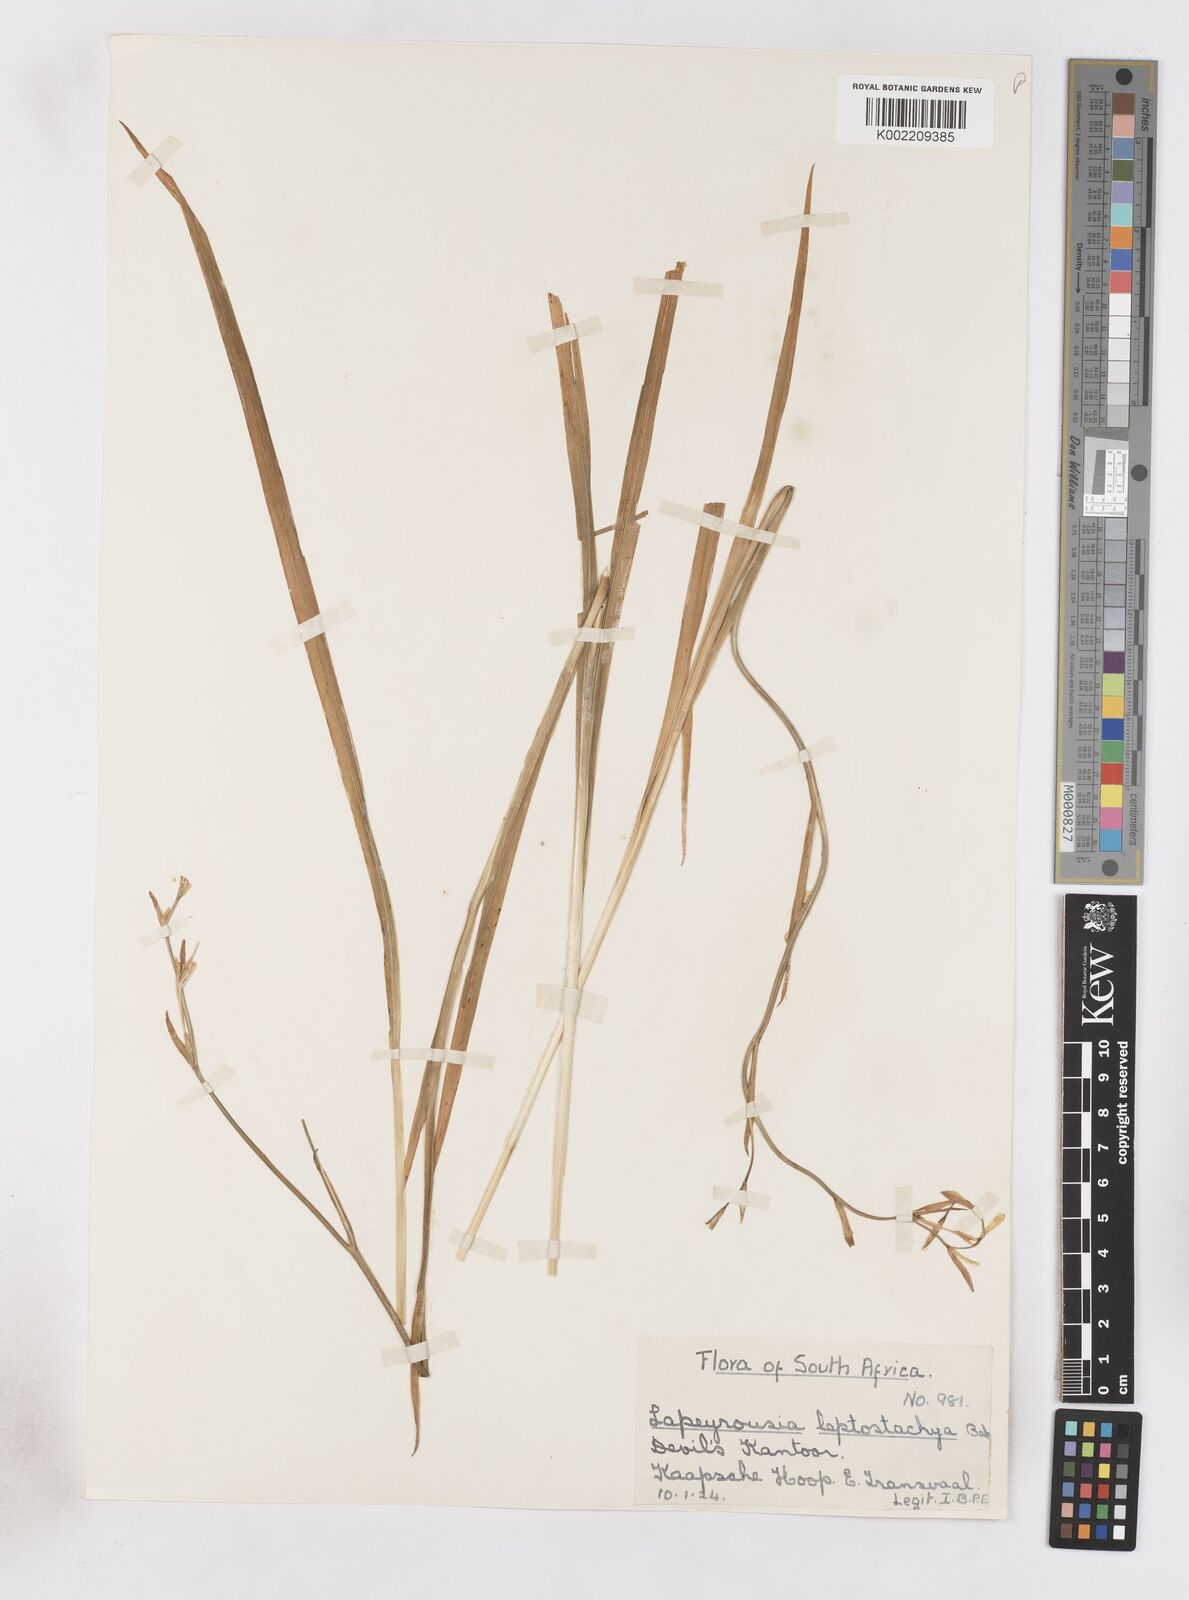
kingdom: Plantae
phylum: Tracheophyta
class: Liliopsida
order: Asparagales
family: Iridaceae
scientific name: Iridaceae
